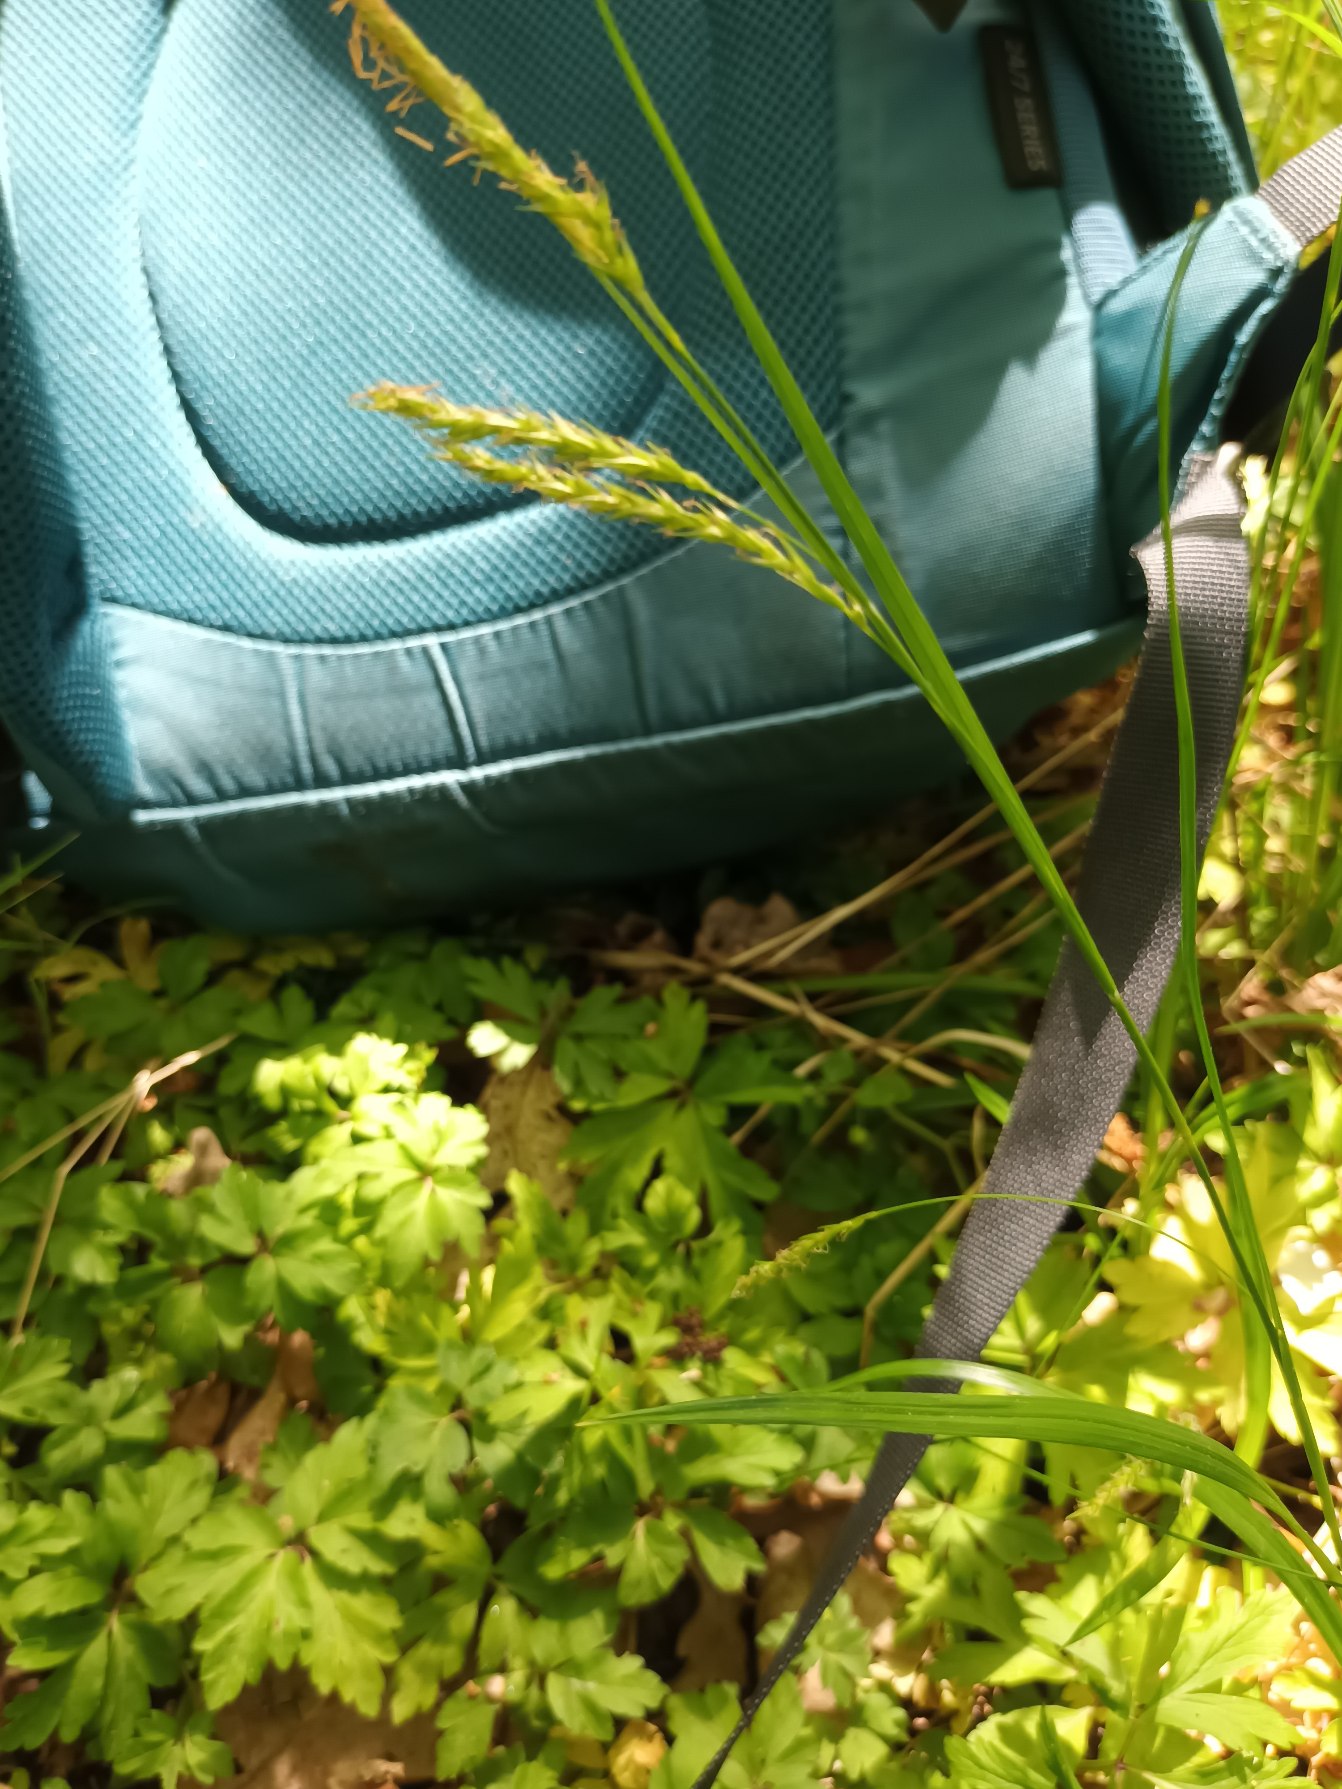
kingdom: Plantae
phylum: Tracheophyta
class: Liliopsida
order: Poales
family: Cyperaceae
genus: Carex
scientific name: Carex sylvatica
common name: Skov-star
